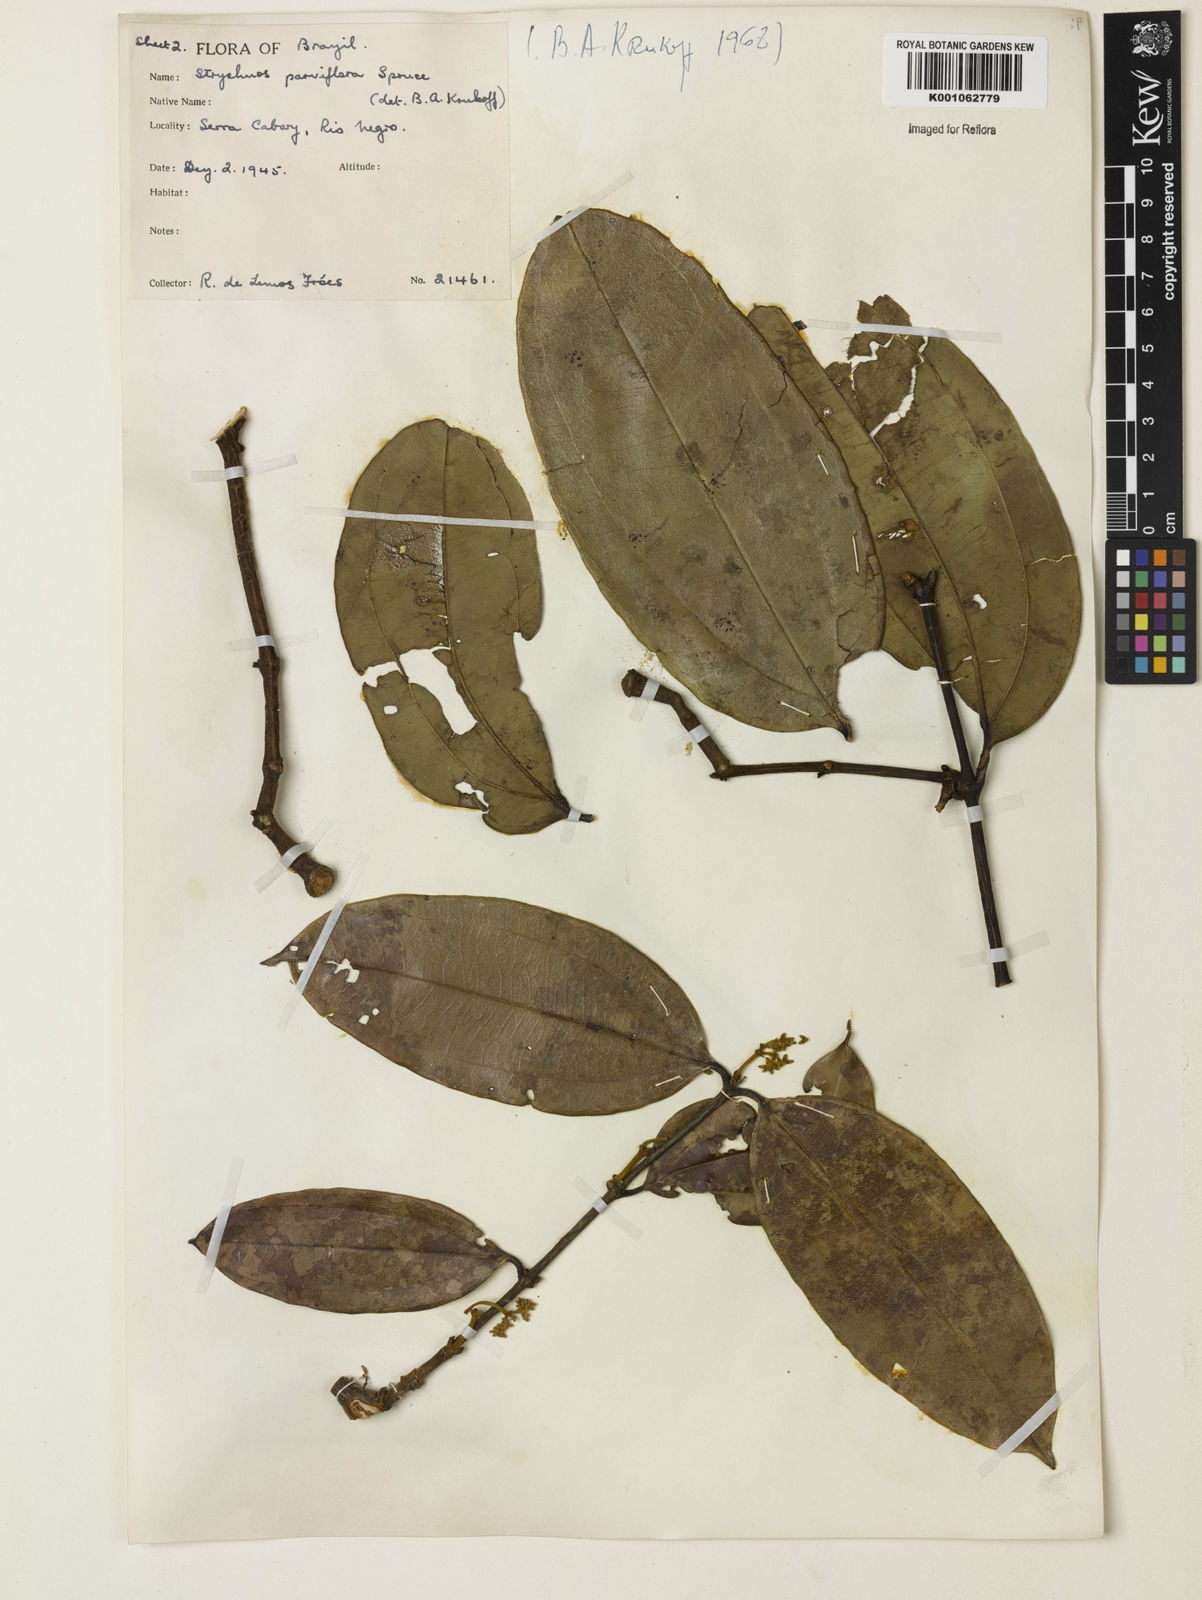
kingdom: Plantae
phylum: Tracheophyta
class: Magnoliopsida
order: Gentianales
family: Loganiaceae
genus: Strychnos
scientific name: Strychnos parviflora
